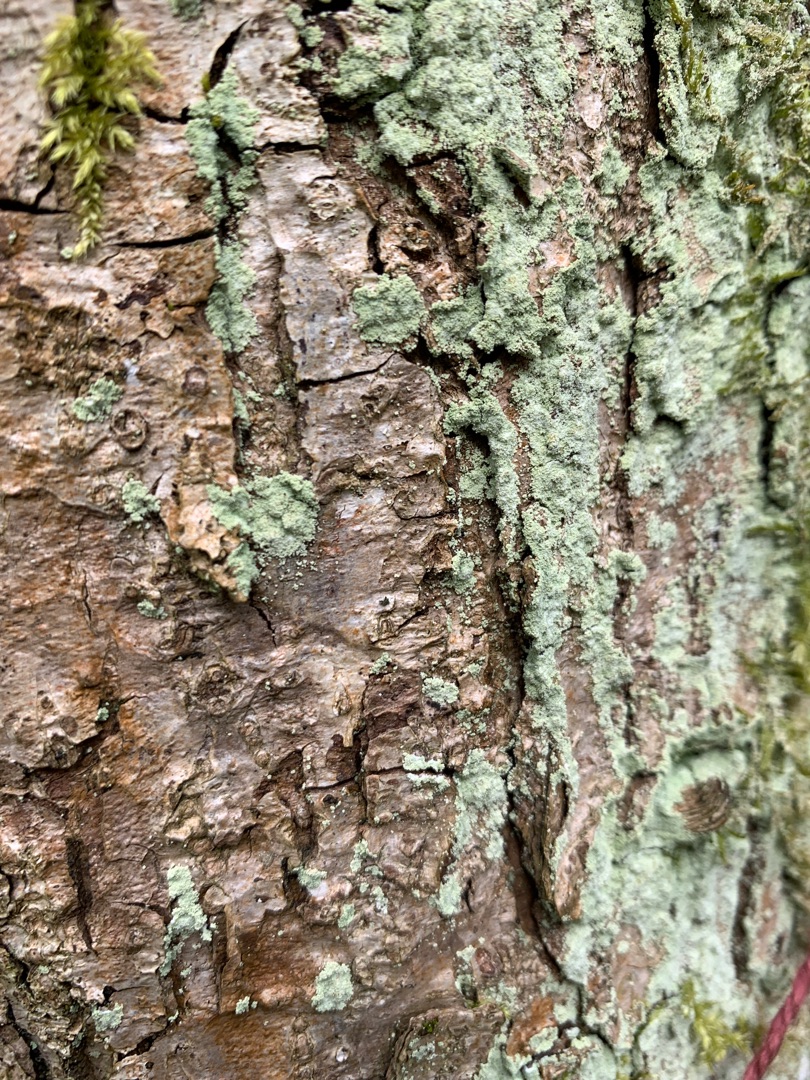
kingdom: Fungi
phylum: Ascomycota
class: Lecanoromycetes
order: Lecanorales
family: Stereocaulaceae
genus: Lepraria
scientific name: Lepraria
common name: Støvlav
